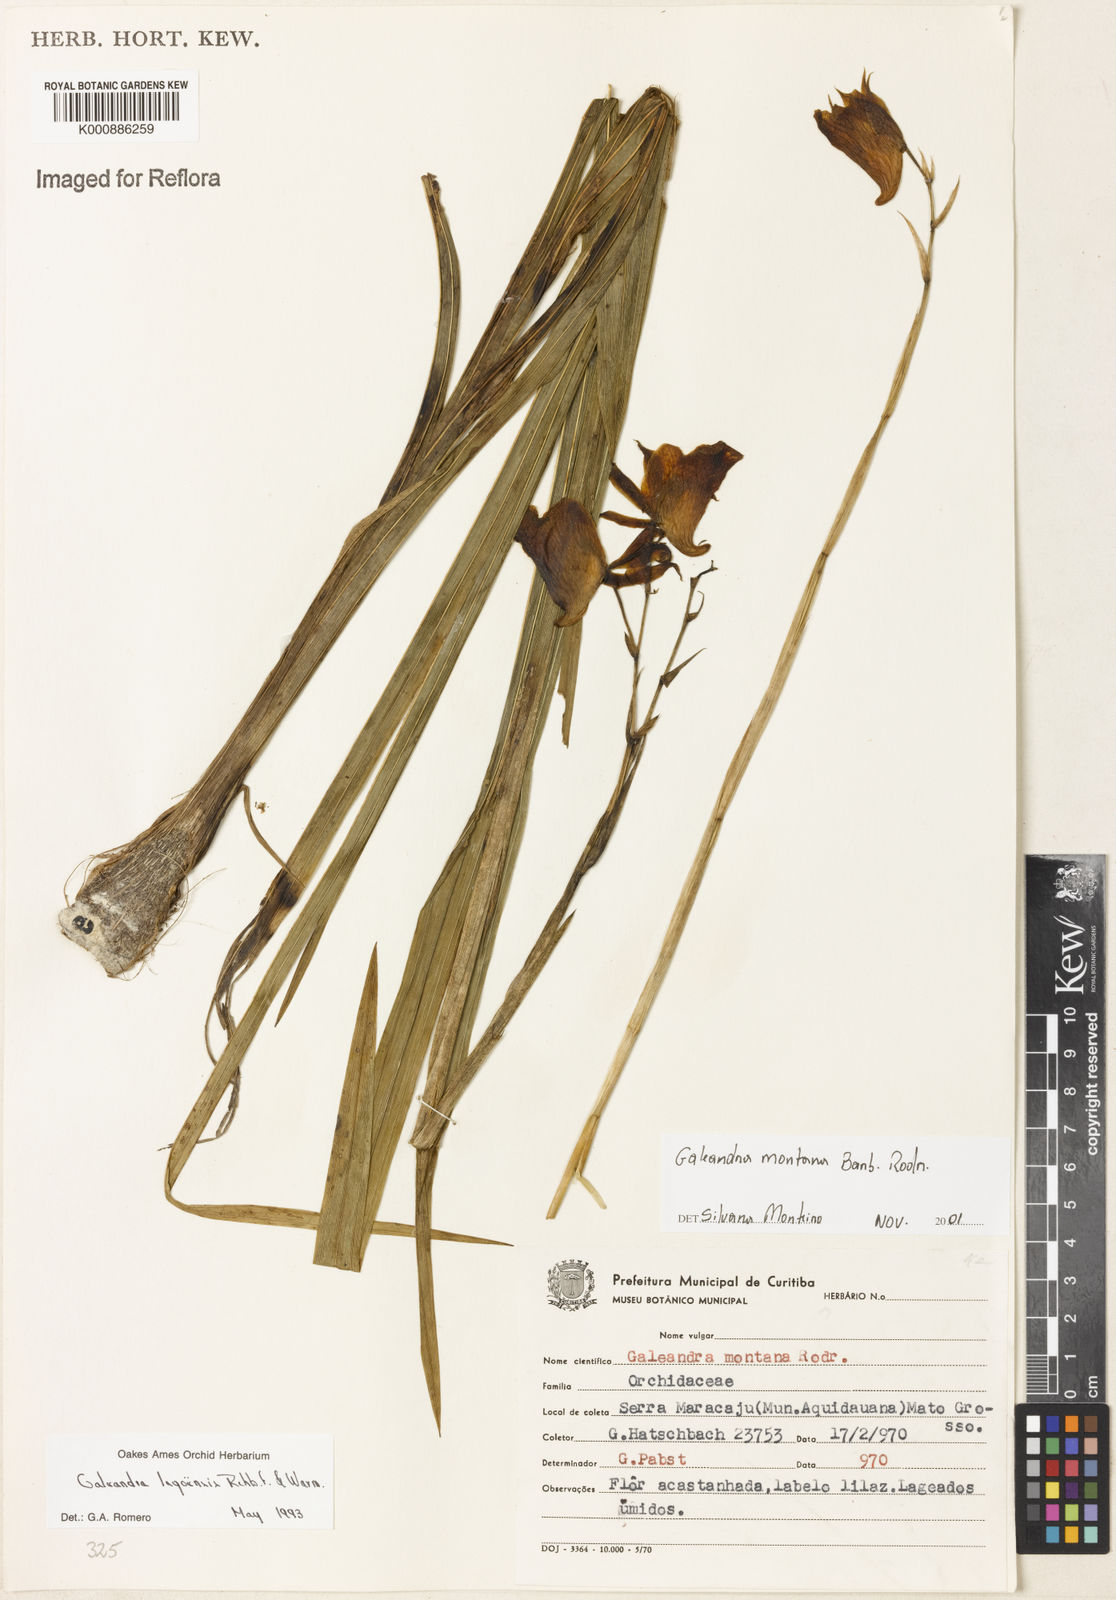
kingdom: Plantae
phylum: Tracheophyta
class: Liliopsida
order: Asparagales
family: Orchidaceae
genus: Galeandra
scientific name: Galeandra montana
